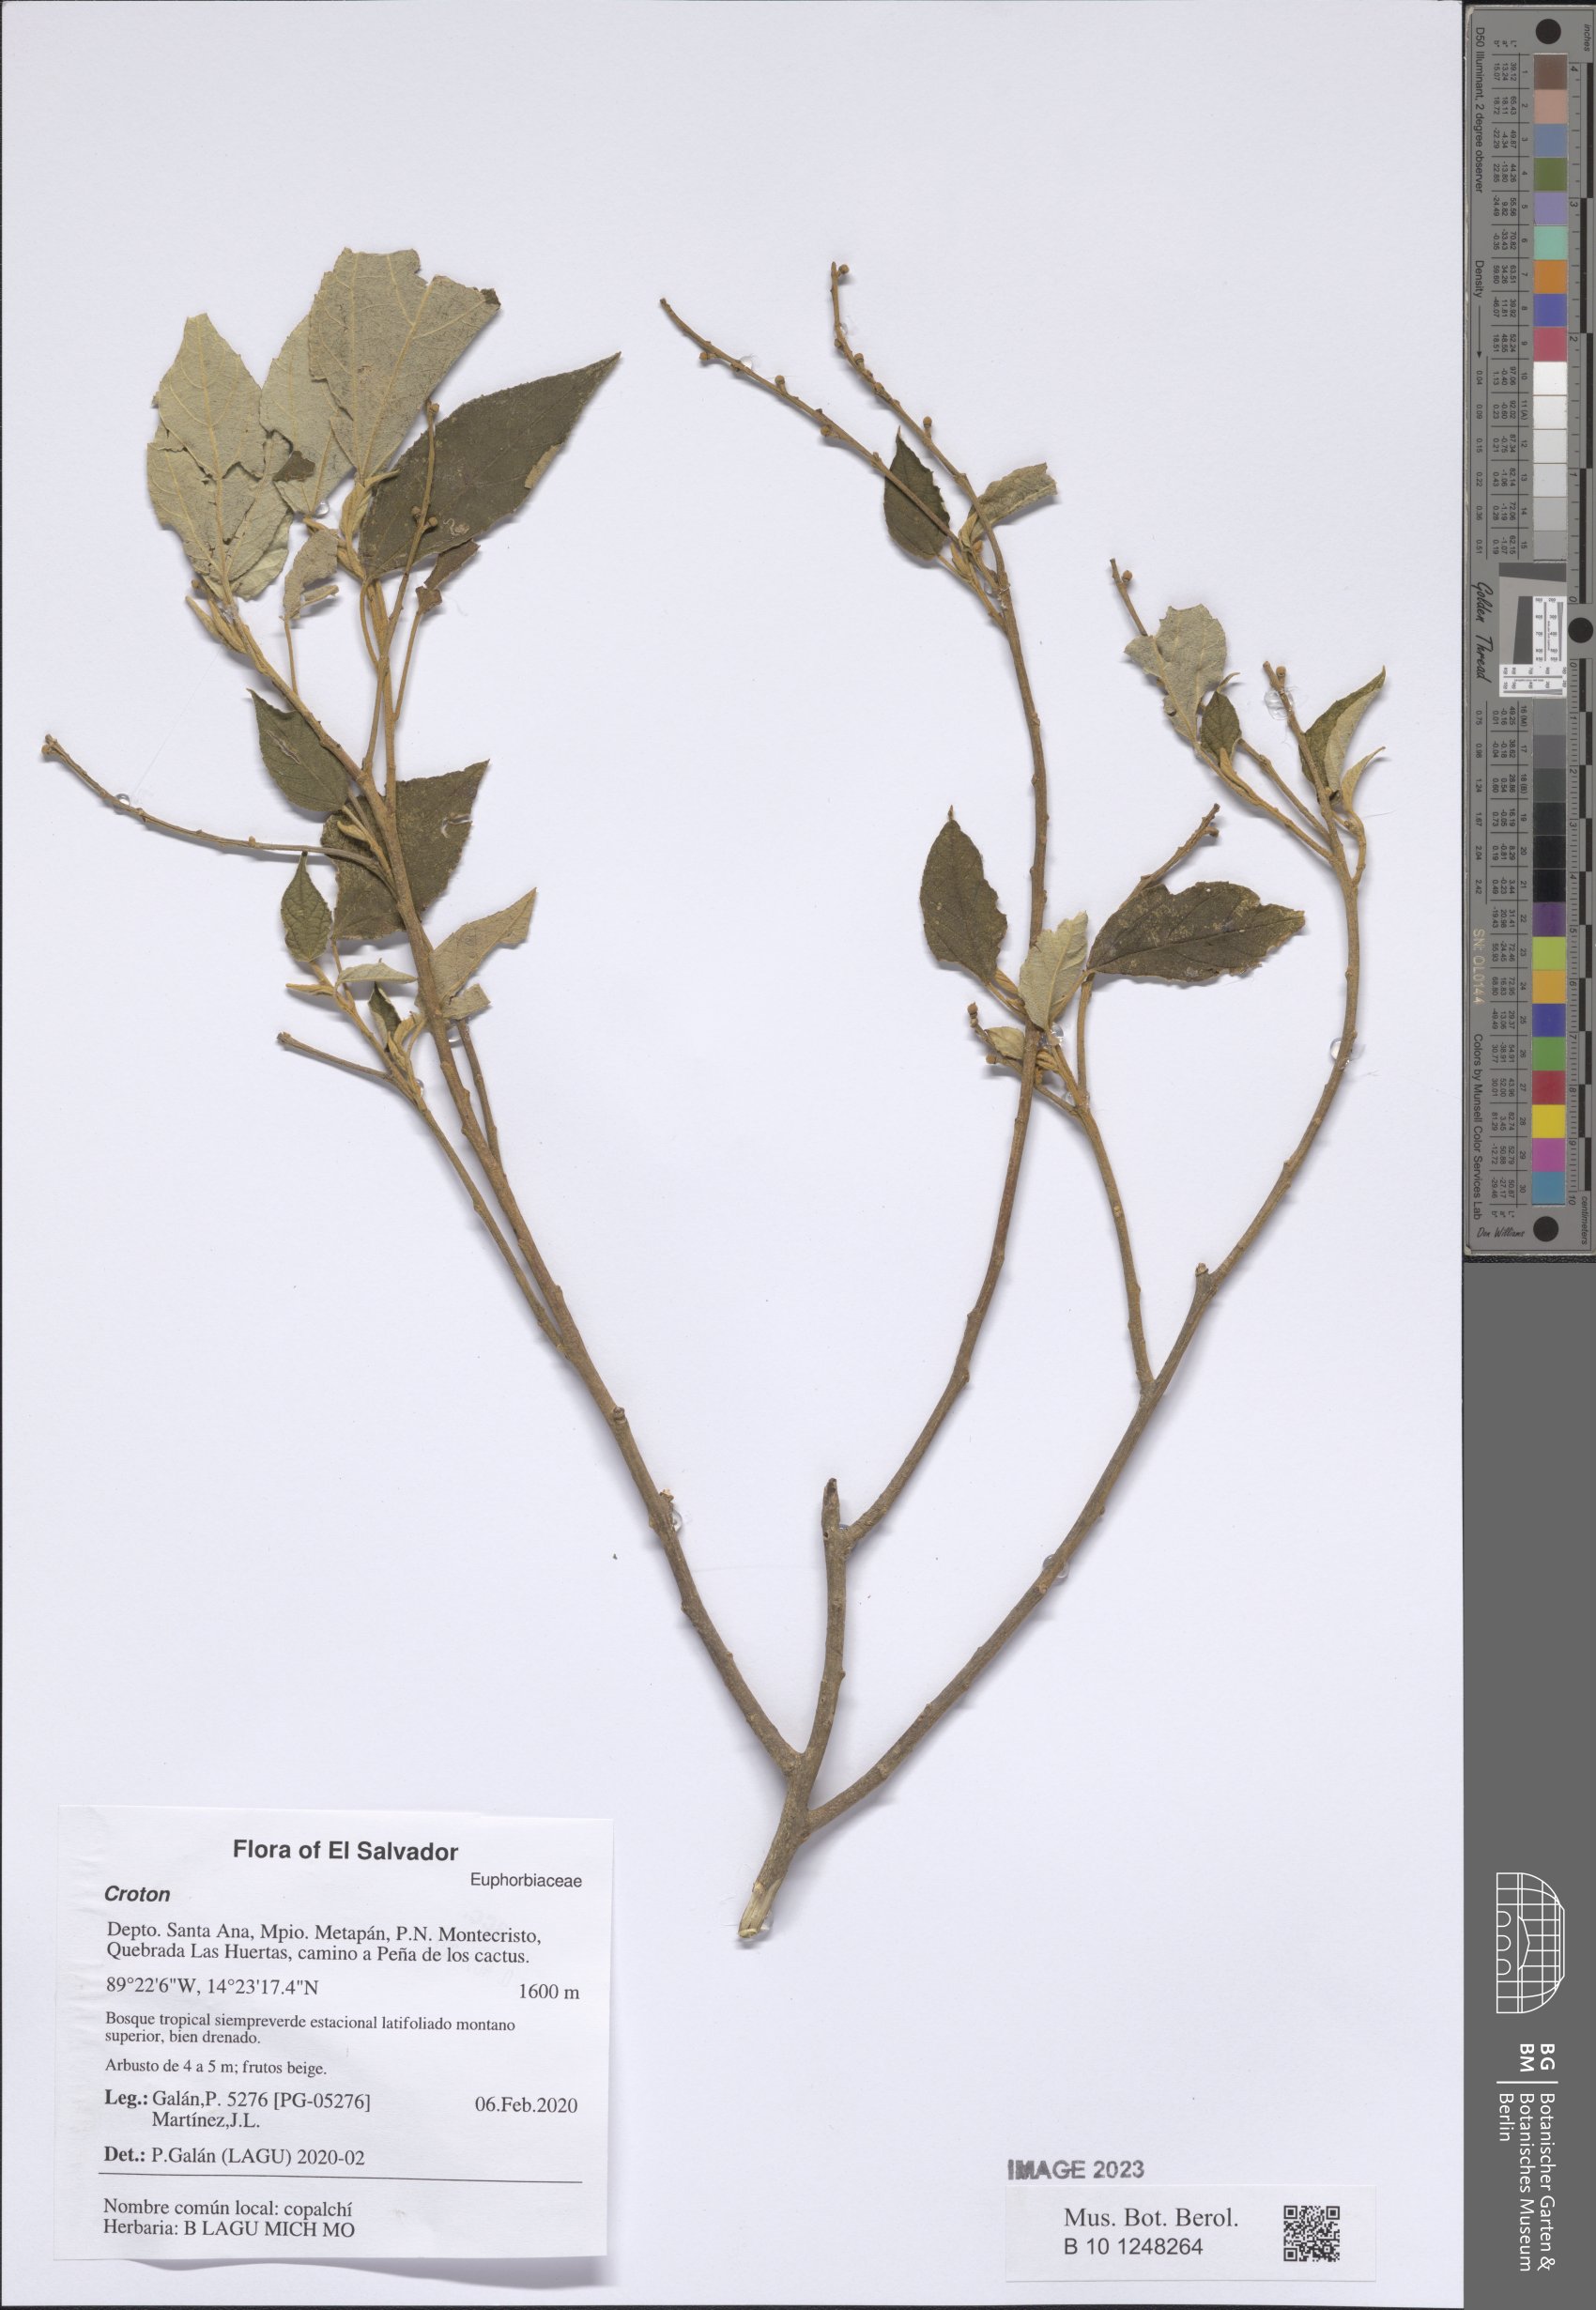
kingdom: Plantae
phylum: Tracheophyta
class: Magnoliopsida
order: Malpighiales
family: Euphorbiaceae
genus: Croton
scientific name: Croton
